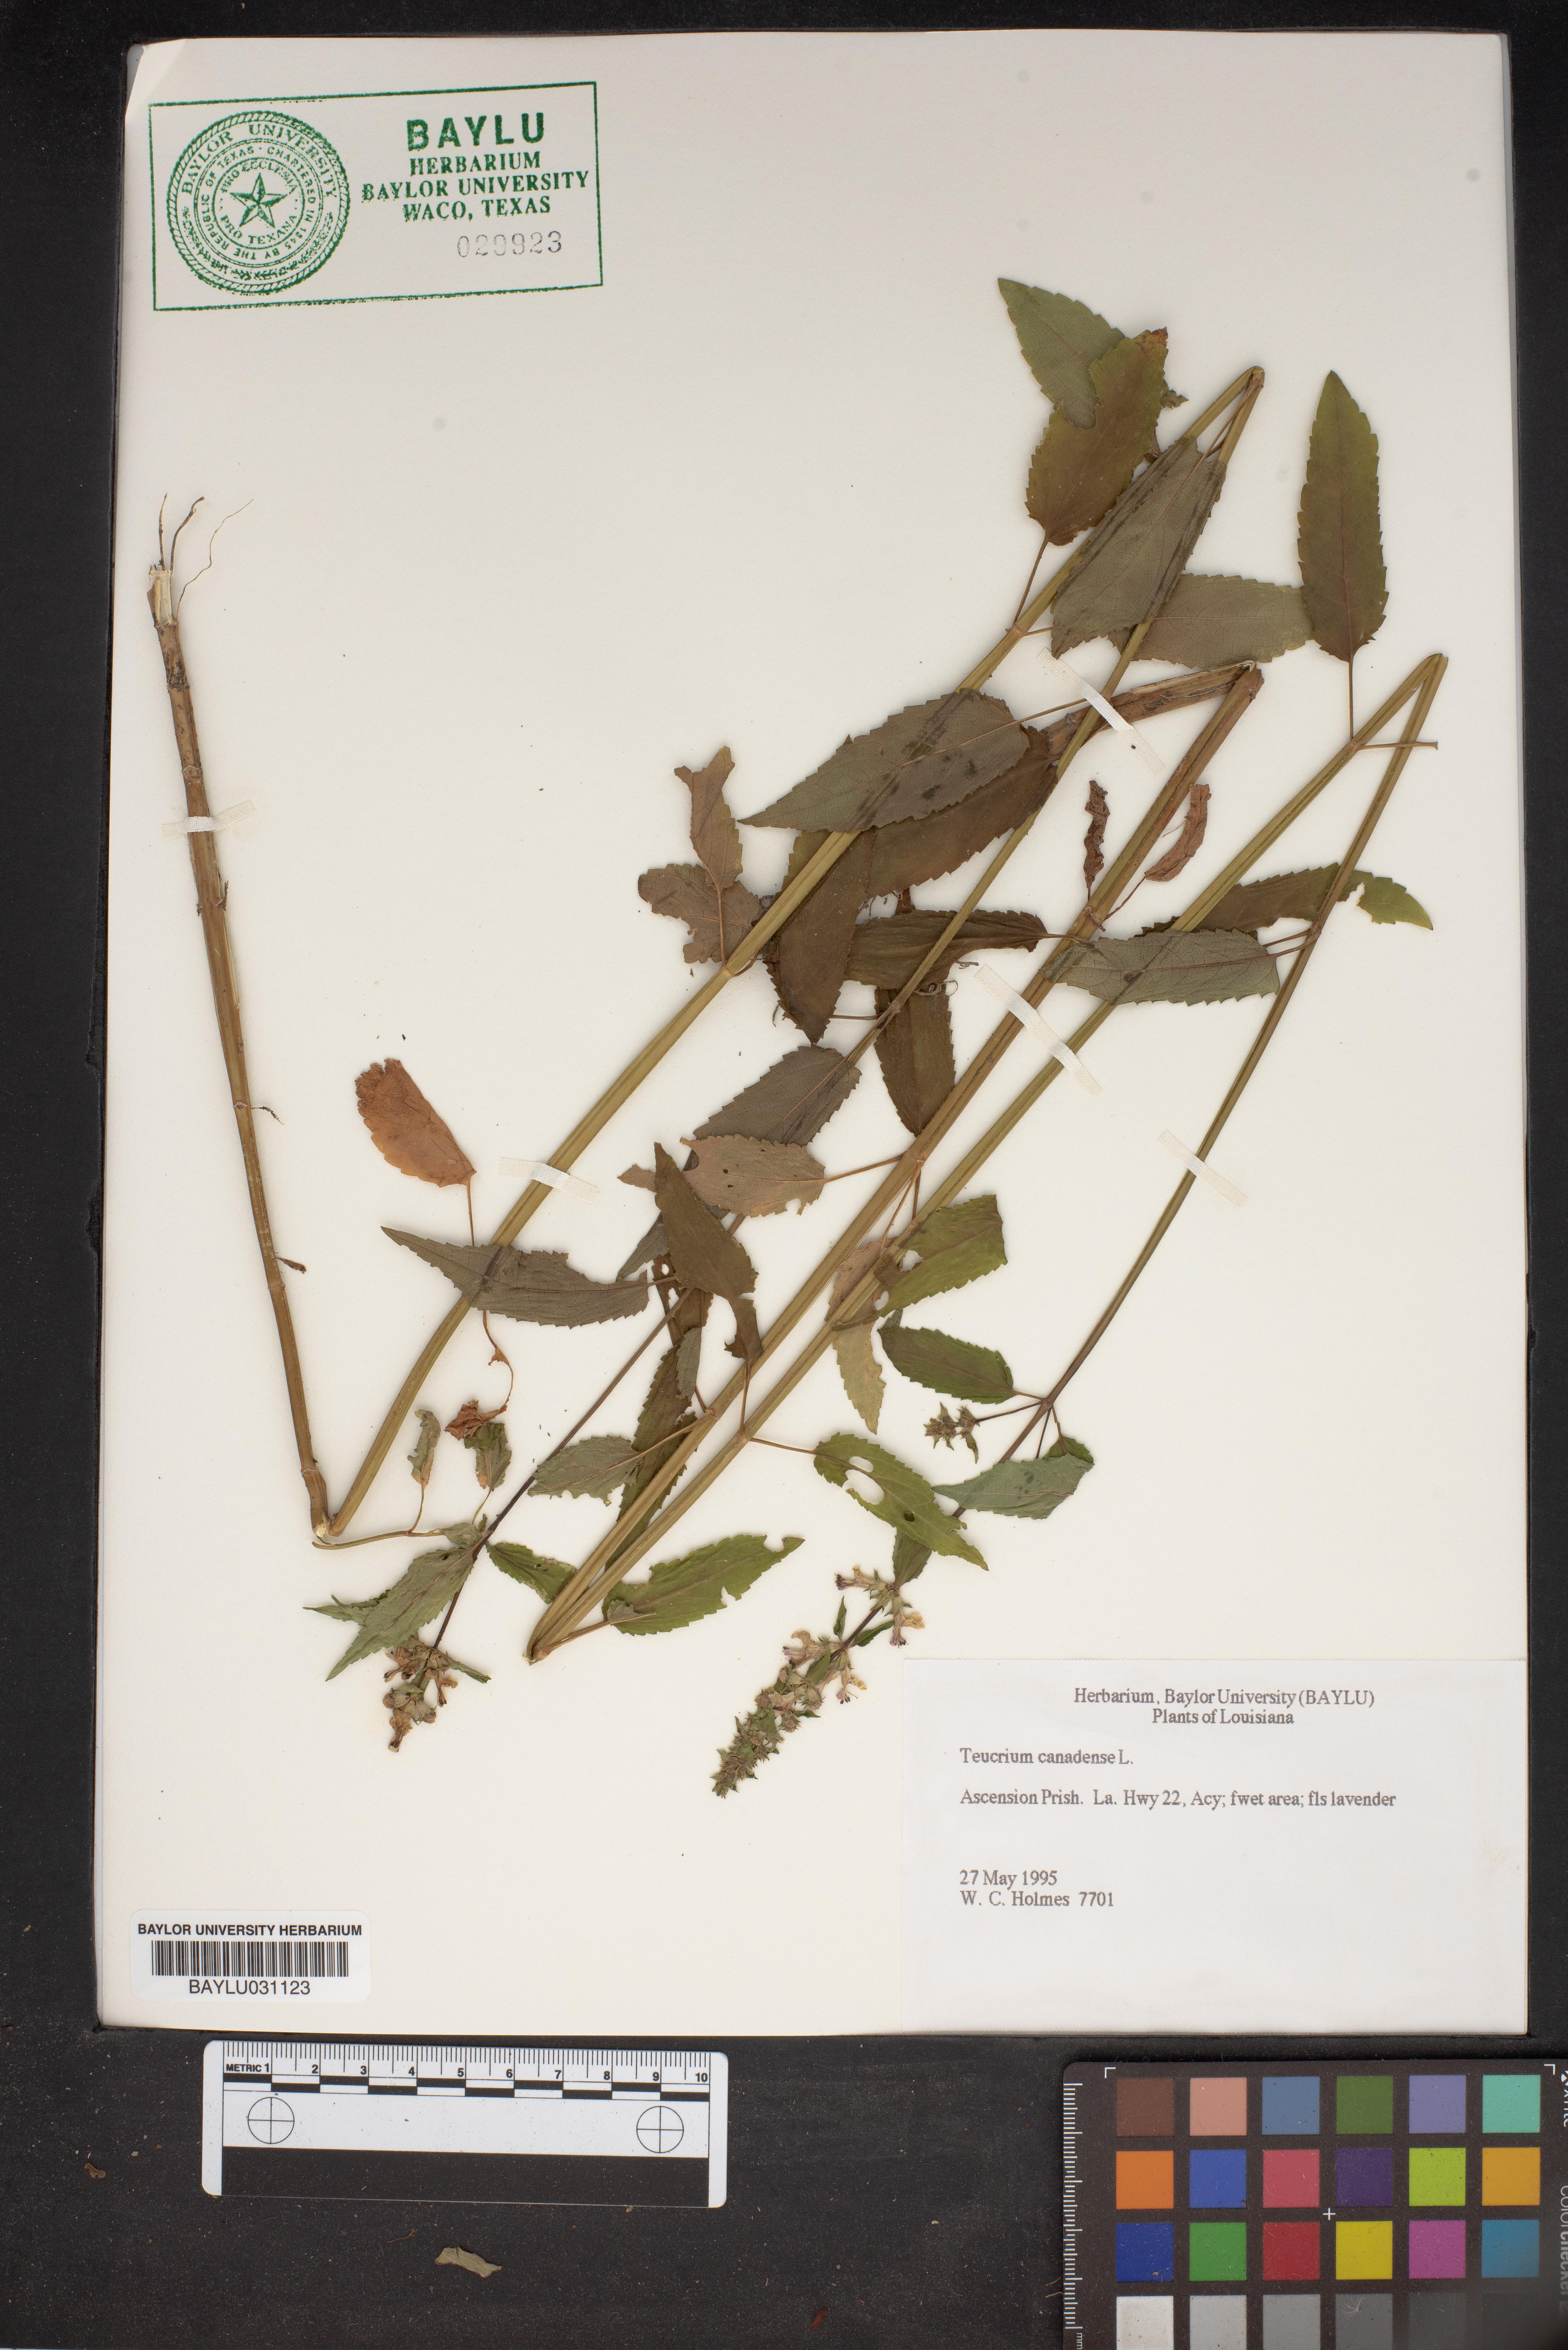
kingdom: Plantae
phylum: Tracheophyta
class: Magnoliopsida
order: Lamiales
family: Lamiaceae
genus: Teucrium
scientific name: Teucrium canadense
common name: American germander
